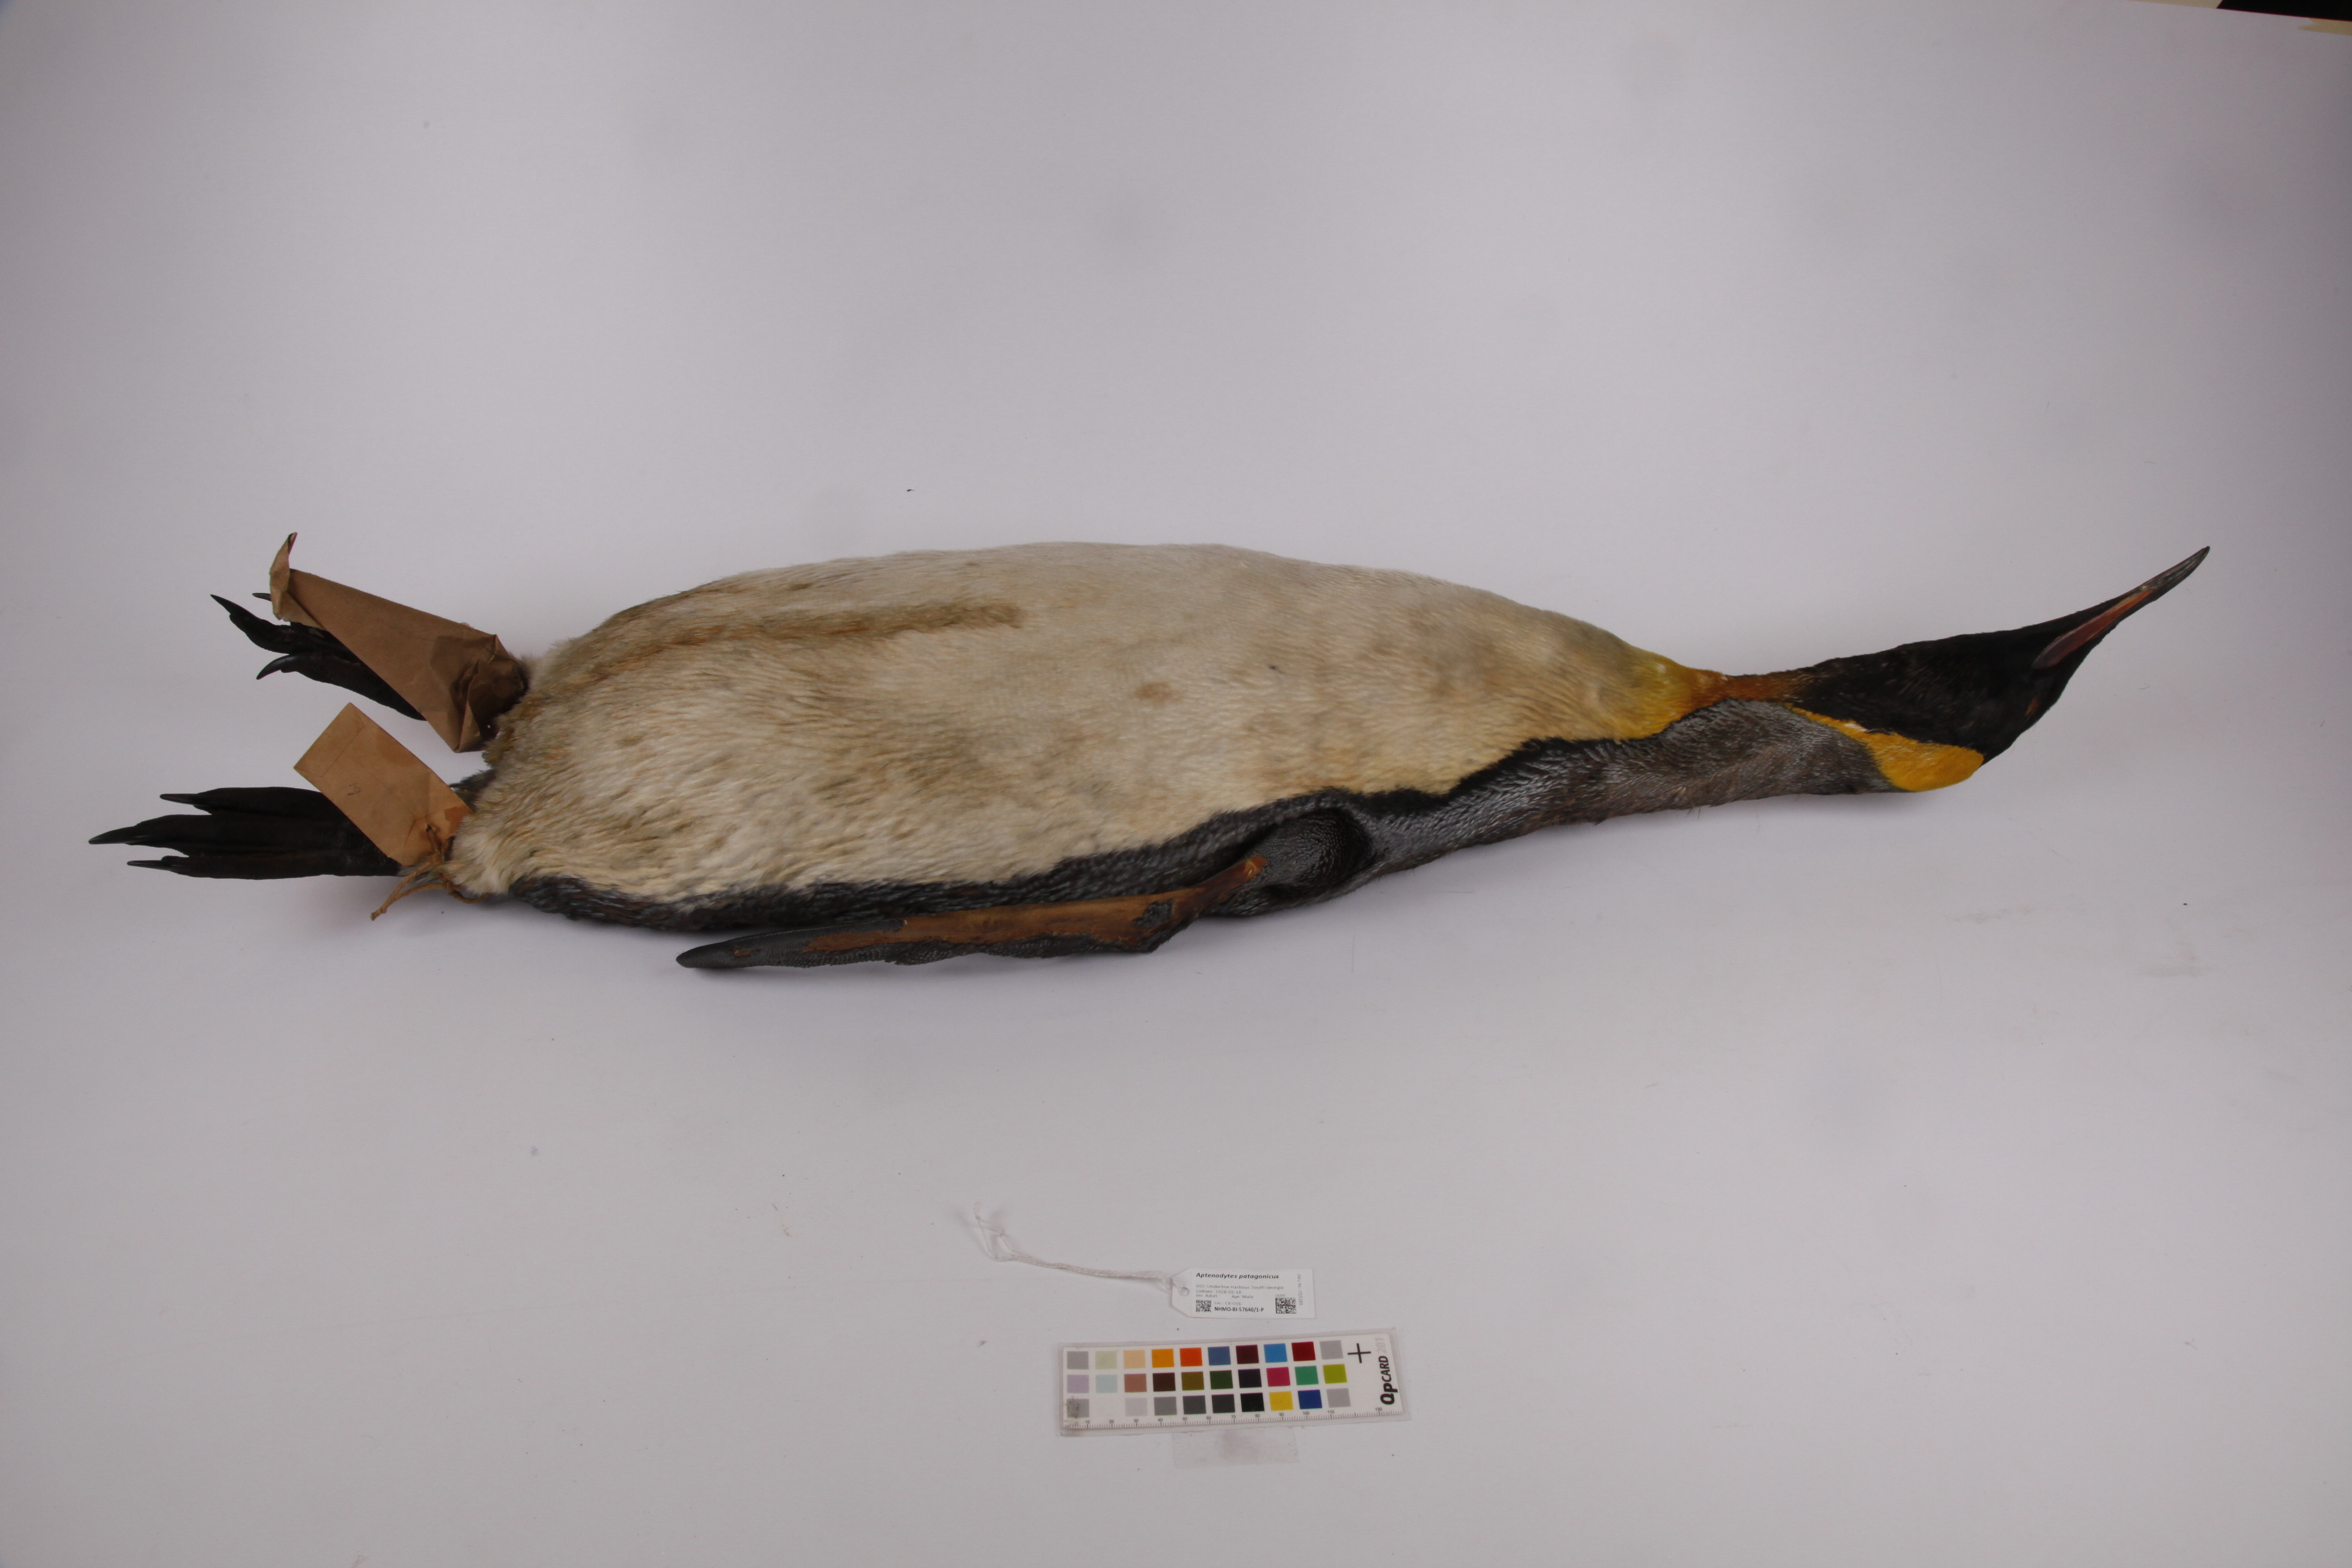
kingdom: Animalia
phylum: Chordata
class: Aves
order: Sphenisciformes
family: Spheniscidae
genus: Aptenodytes
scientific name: Aptenodytes patagonicus
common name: King penguin
